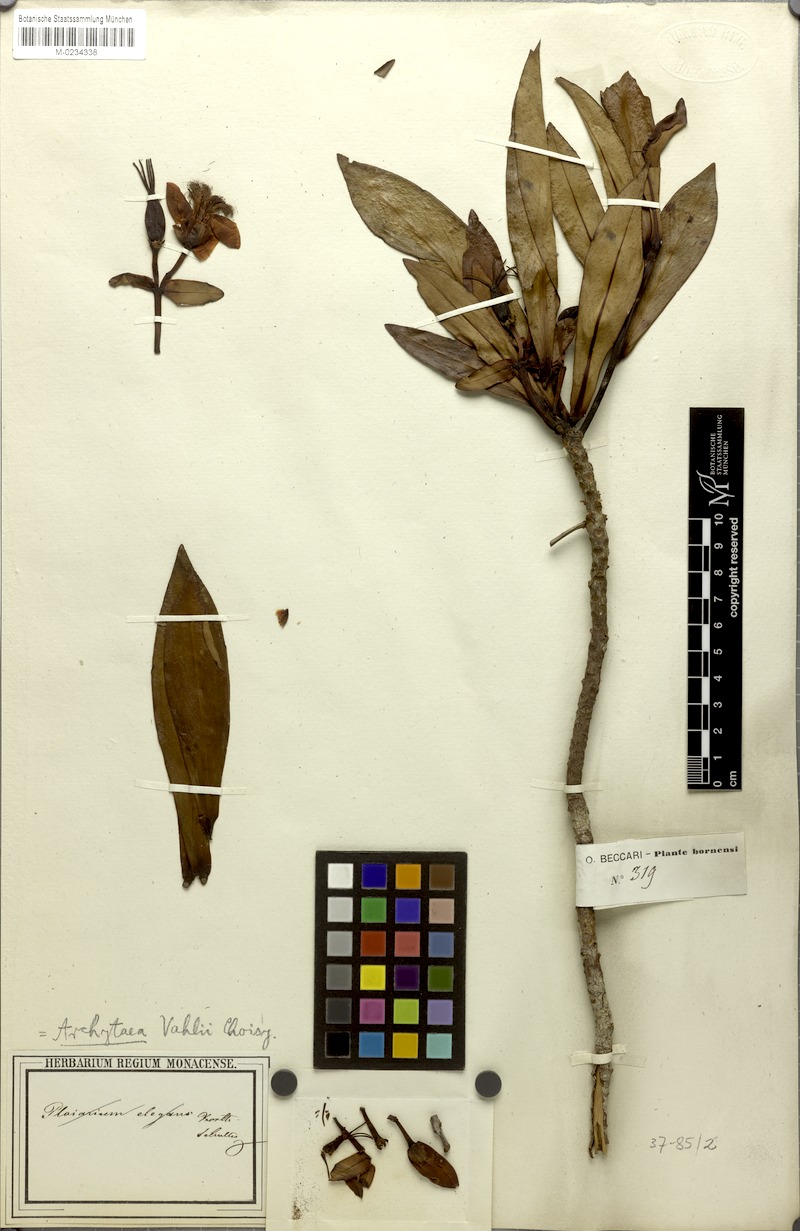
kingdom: Plantae
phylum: Tracheophyta
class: Magnoliopsida
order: Malpighiales
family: Bonnetiaceae
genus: Ploiarium
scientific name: Ploiarium alternifolium
